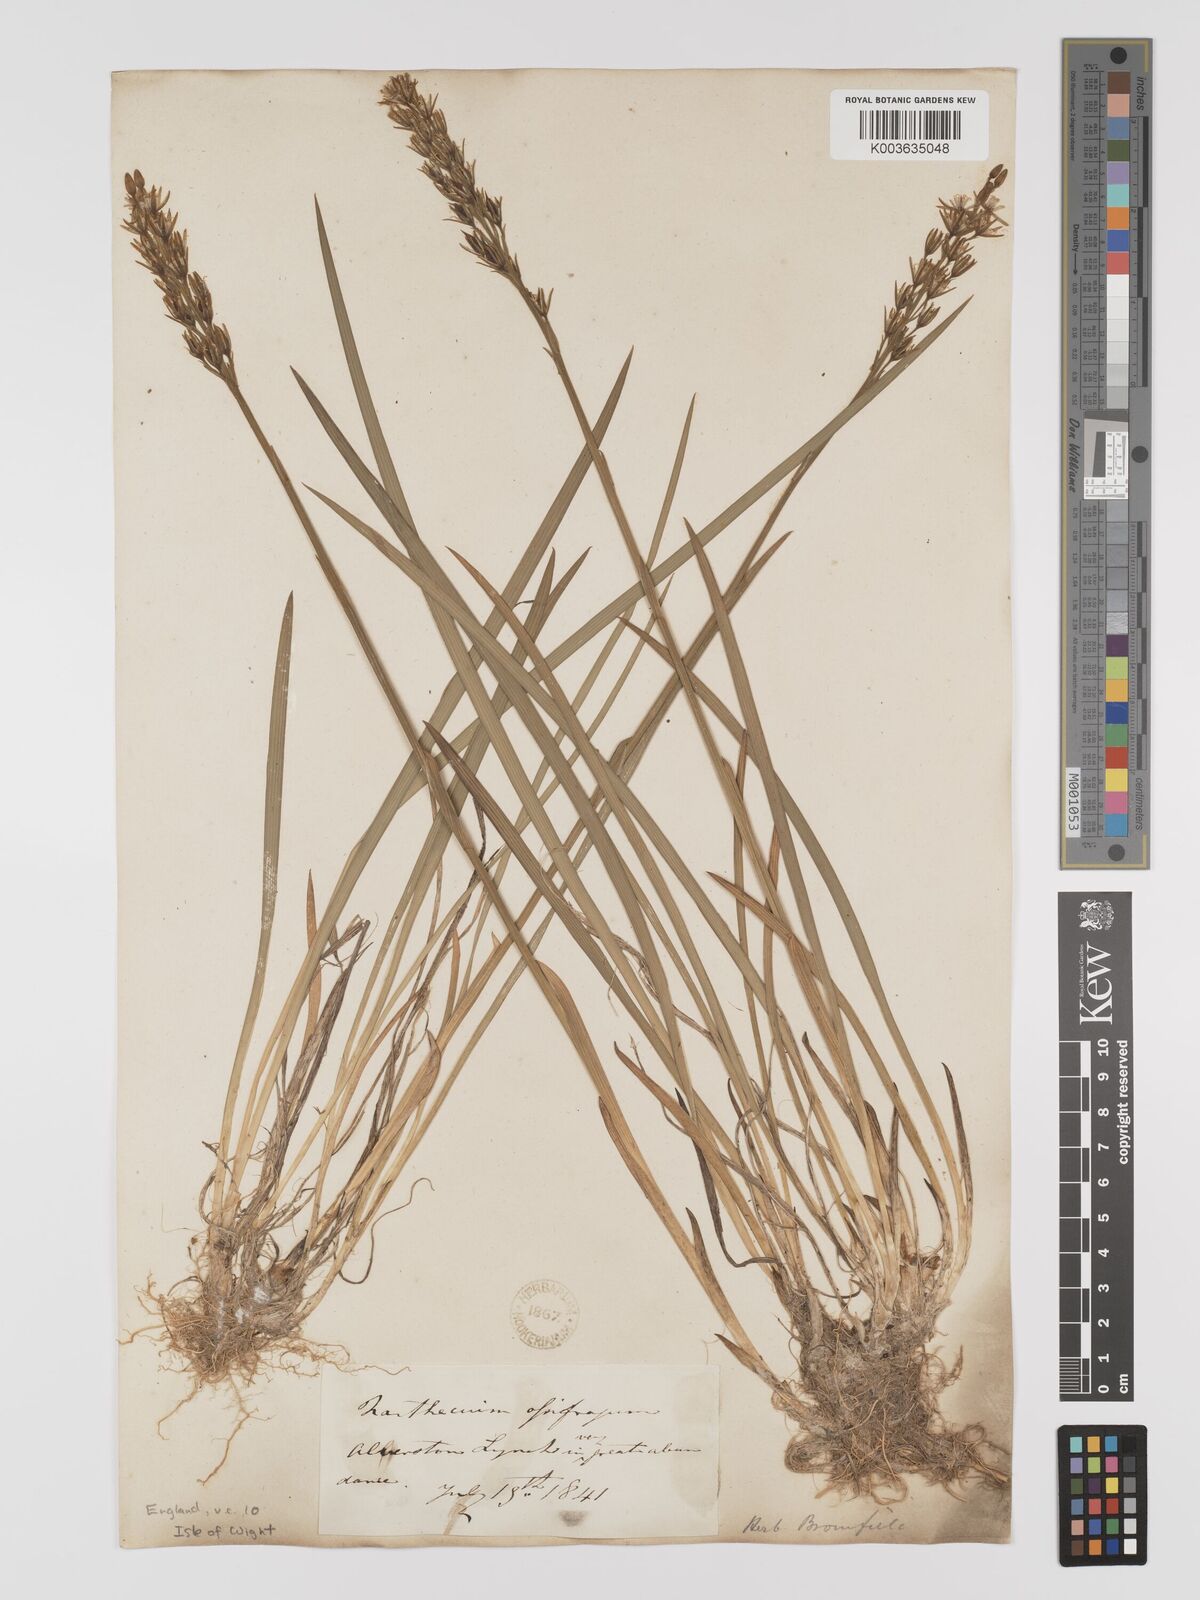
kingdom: Plantae
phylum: Tracheophyta
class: Liliopsida
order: Dioscoreales
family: Nartheciaceae
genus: Narthecium
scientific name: Narthecium
